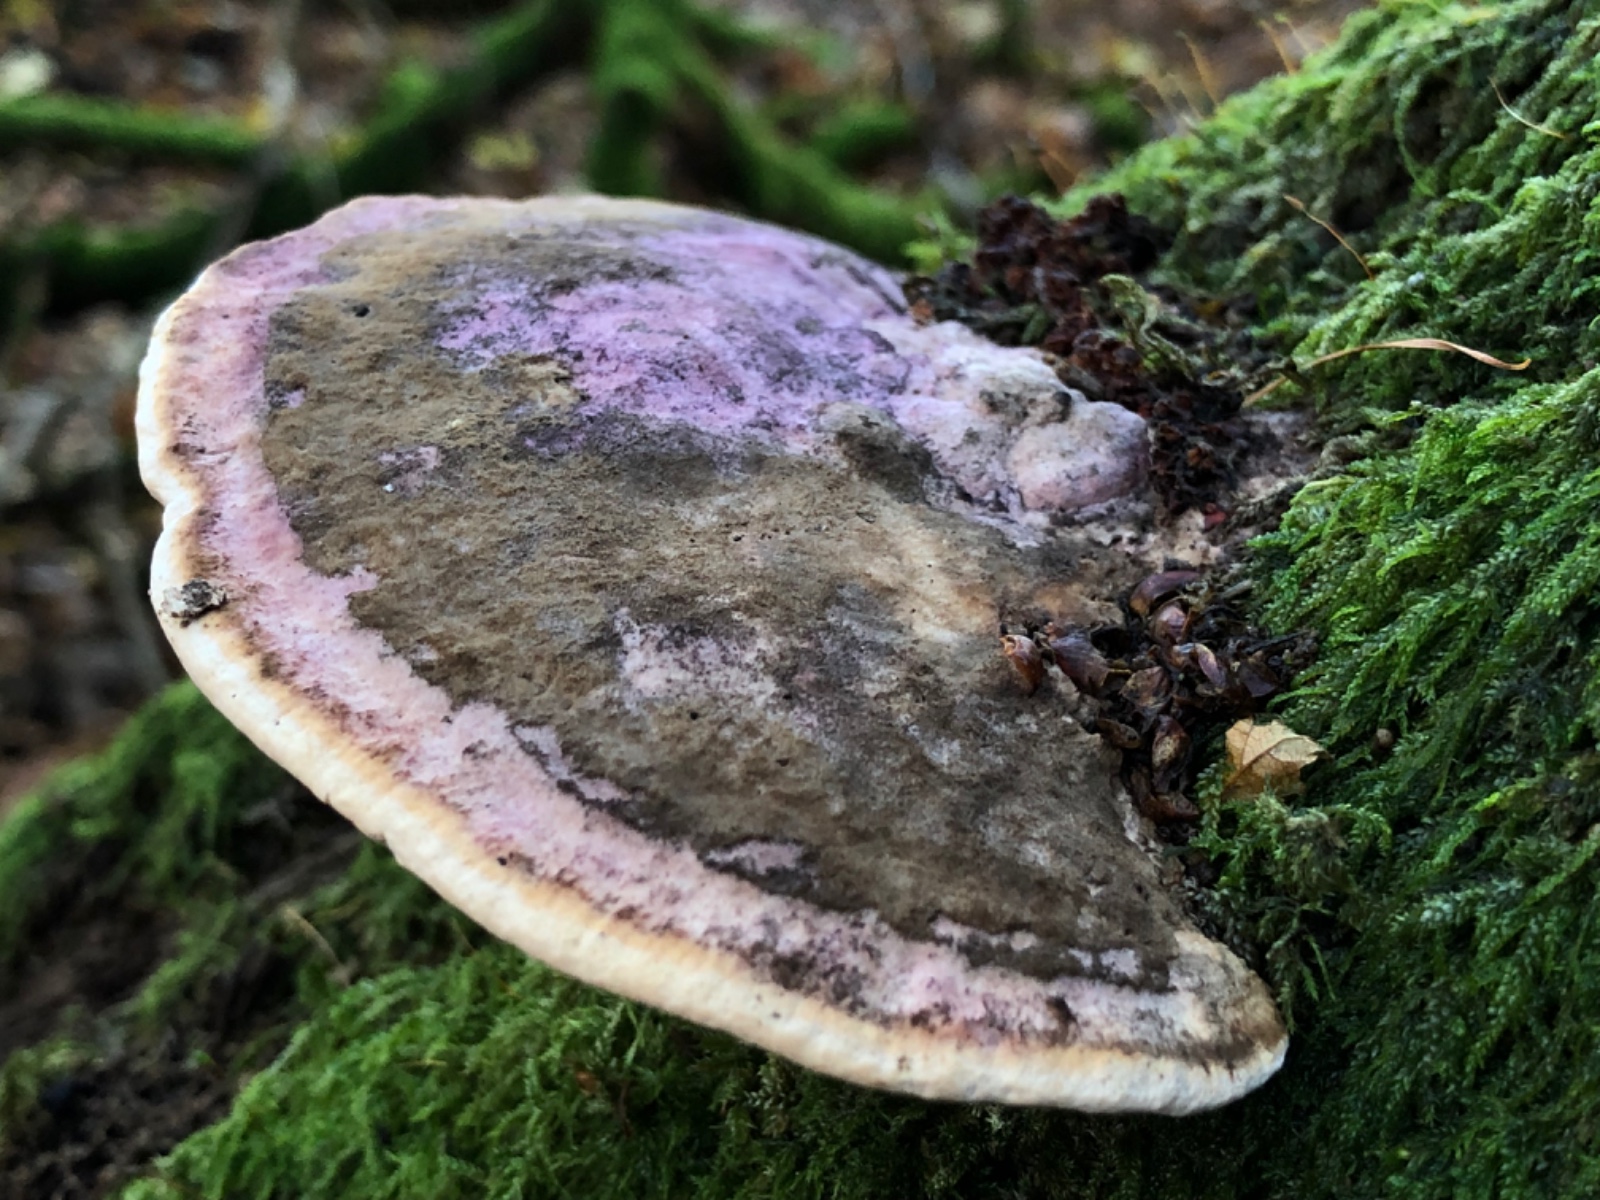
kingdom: Fungi
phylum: Basidiomycota
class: Agaricomycetes
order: Polyporales
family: Fomitopsidaceae
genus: Daedalea
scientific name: Daedalea quercina
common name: ege-labyrintsvamp
